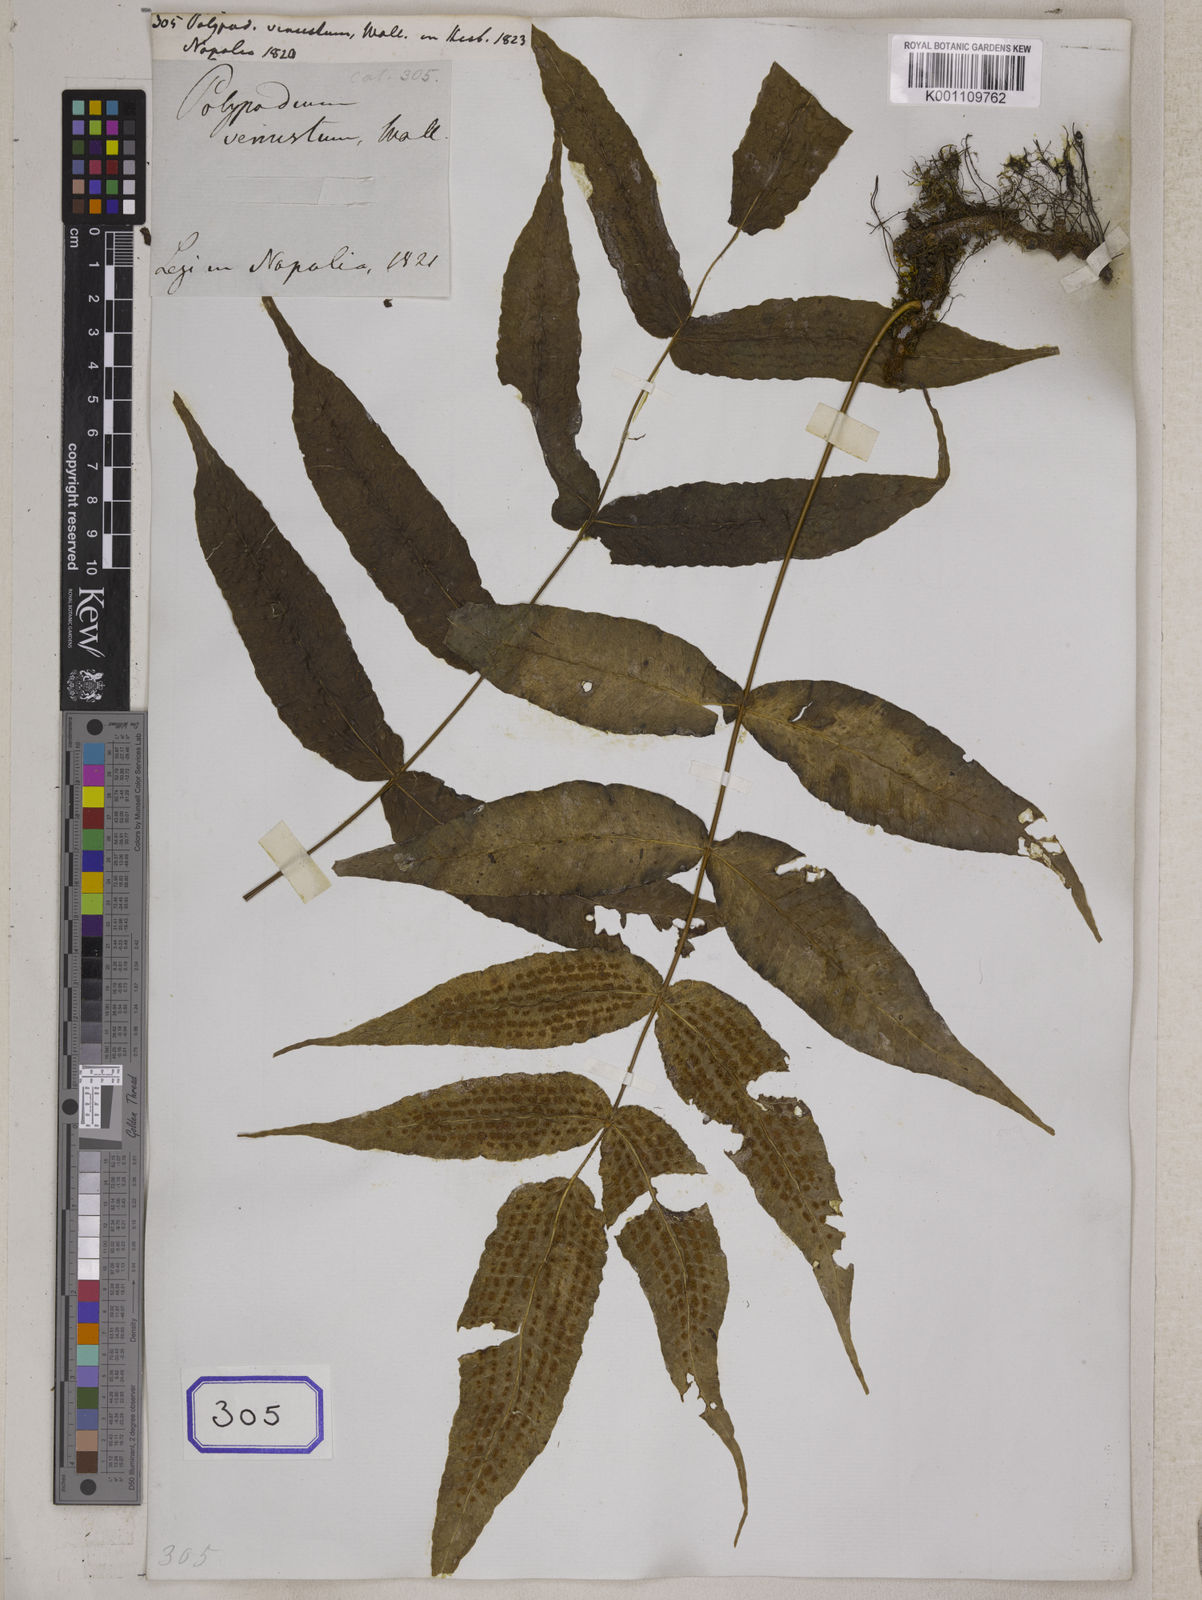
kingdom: Plantae
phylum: Tracheophyta
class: Polypodiopsida
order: Polypodiales
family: Polypodiaceae
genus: Polypodium
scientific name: Polypodium
